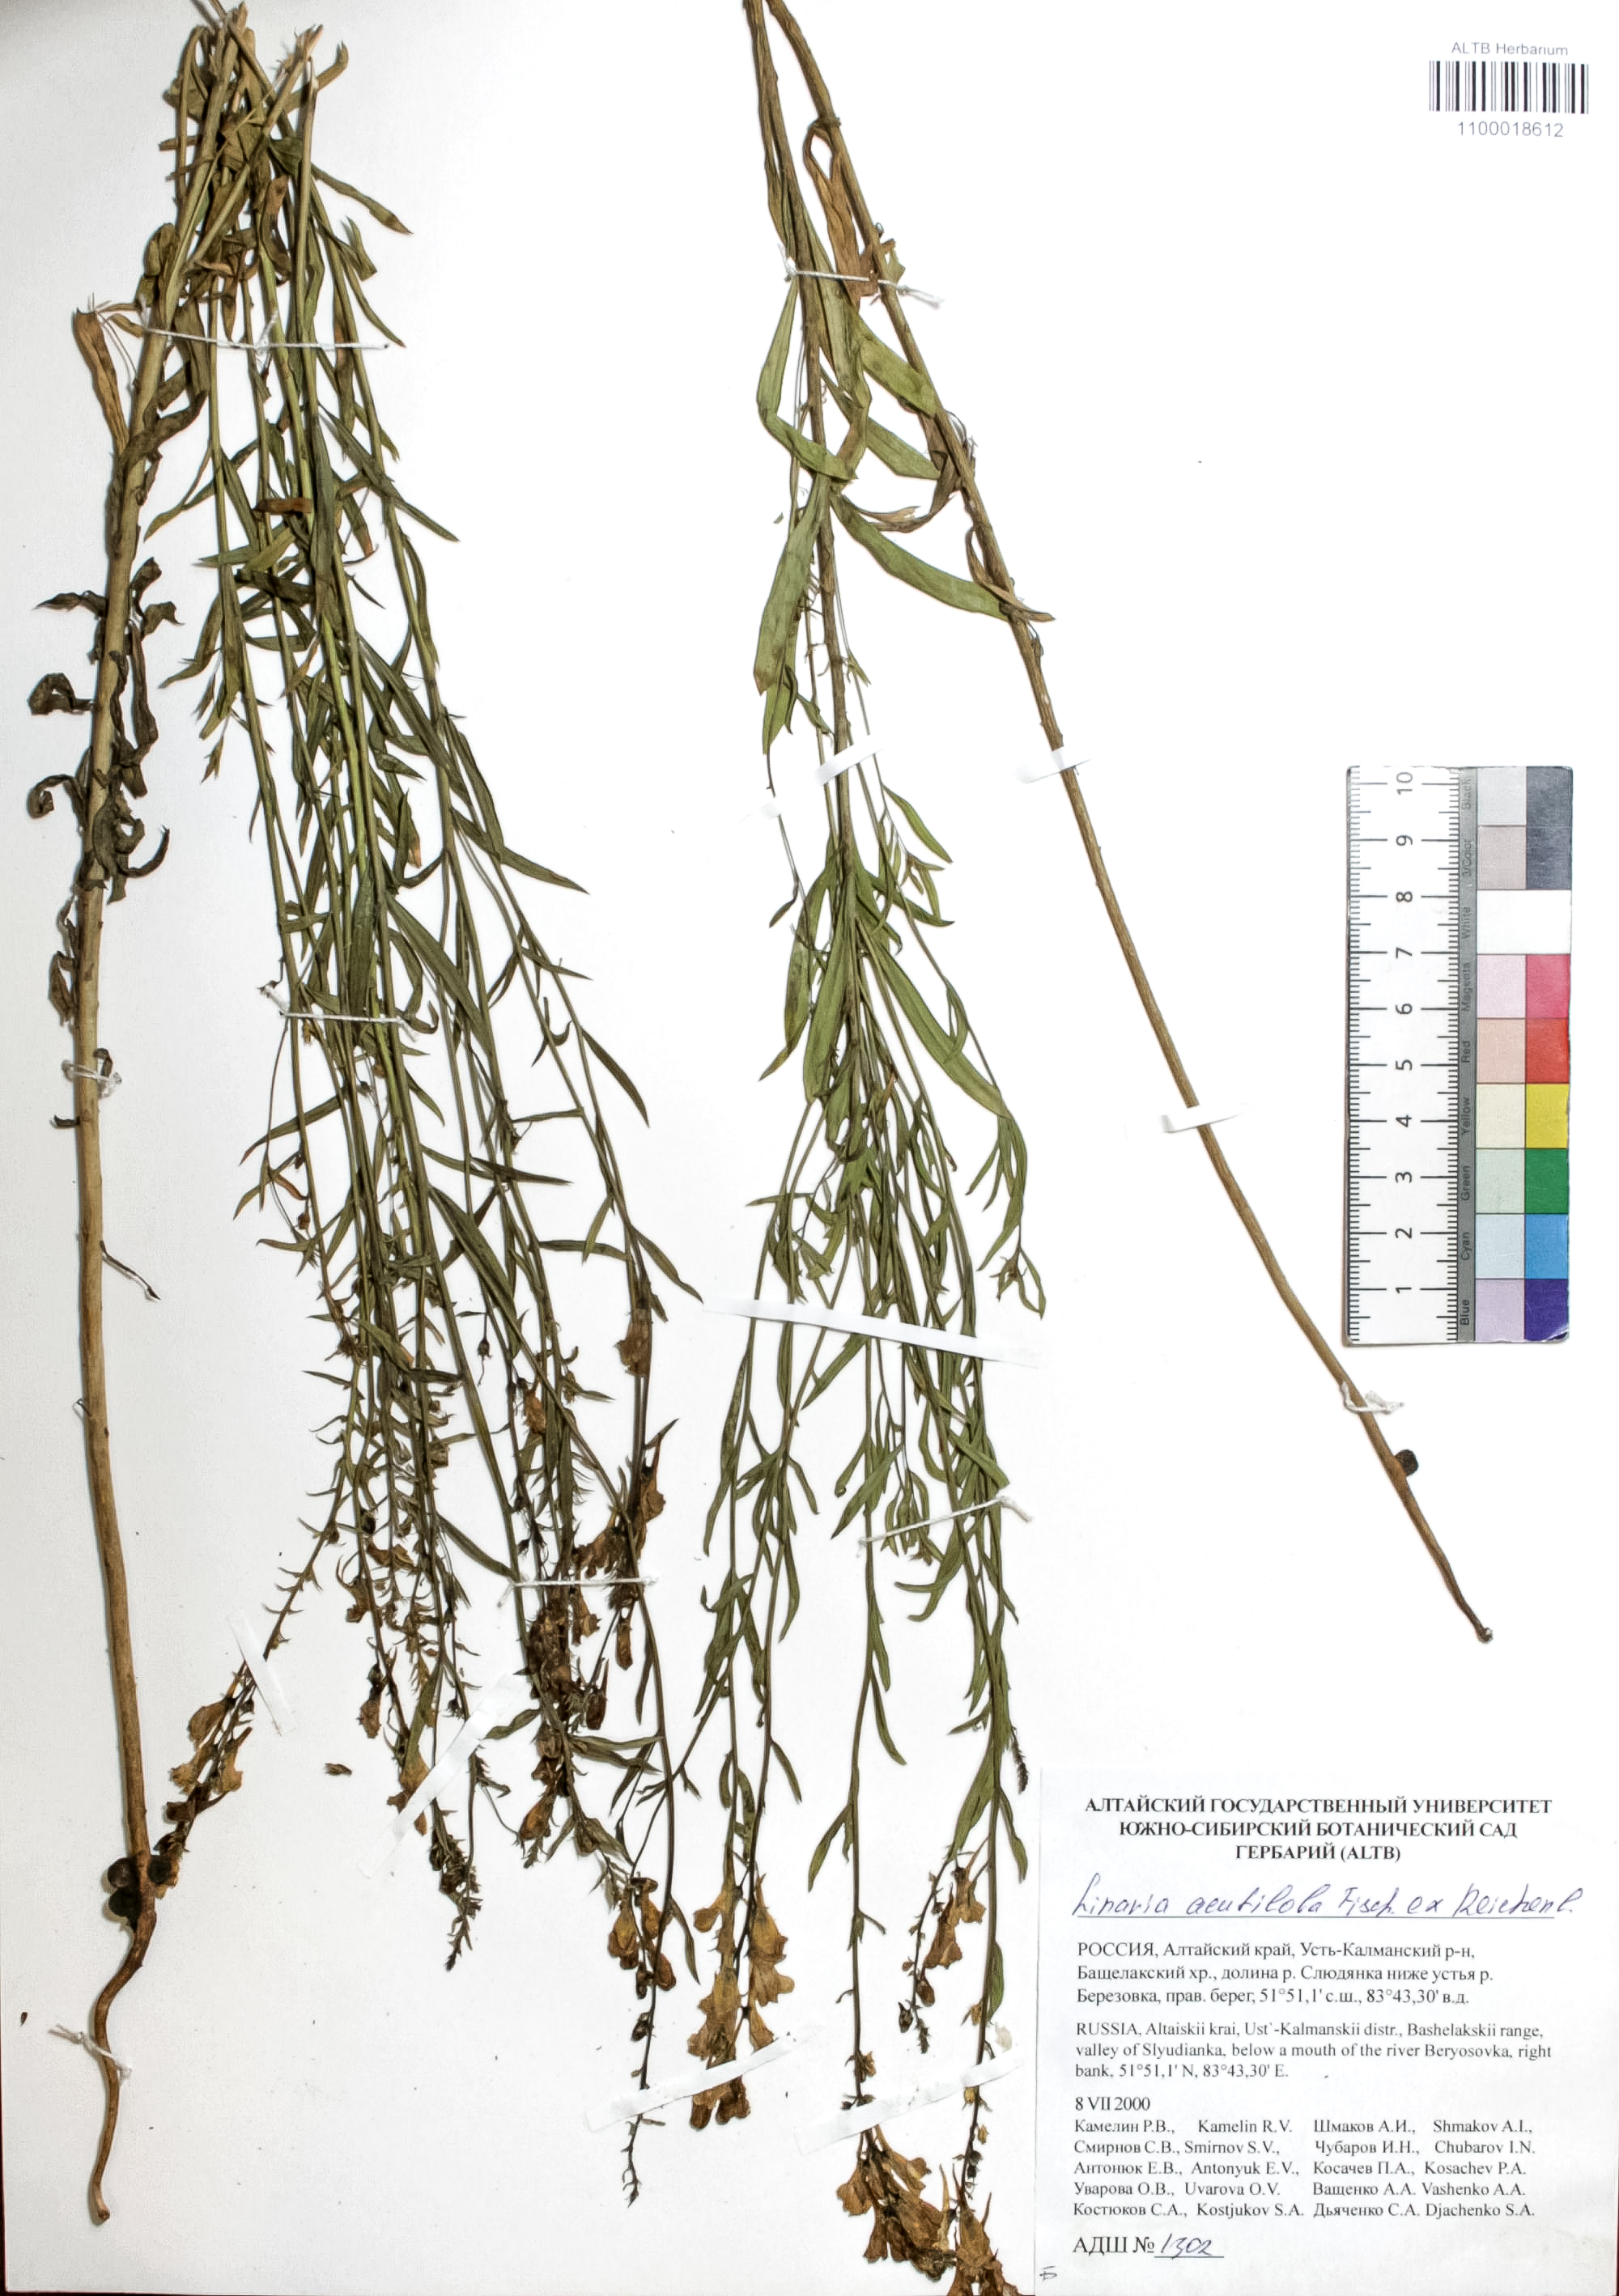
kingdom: Plantae
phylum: Tracheophyta
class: Magnoliopsida
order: Lamiales
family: Plantaginaceae
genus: Linaria
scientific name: Linaria acutiloba
